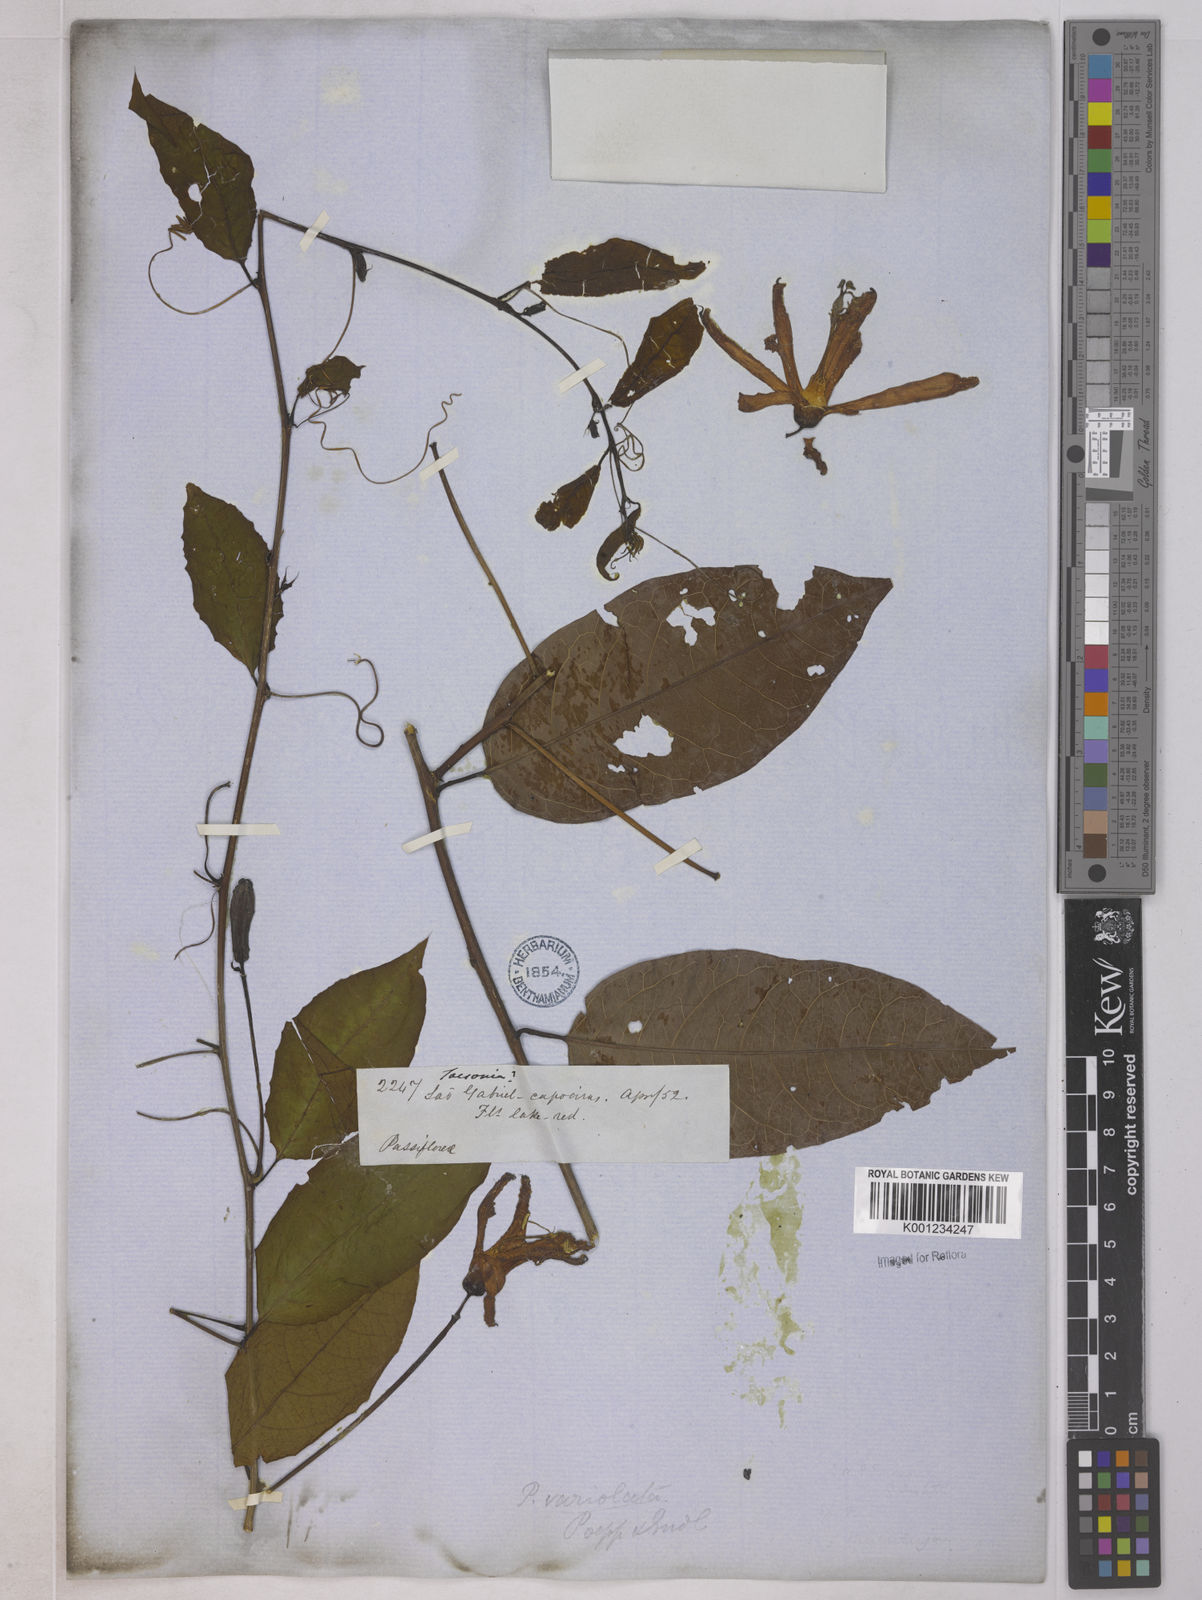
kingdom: Plantae
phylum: Tracheophyta
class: Magnoliopsida
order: Malpighiales
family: Passifloraceae
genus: Passiflora
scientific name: Passiflora variolata
